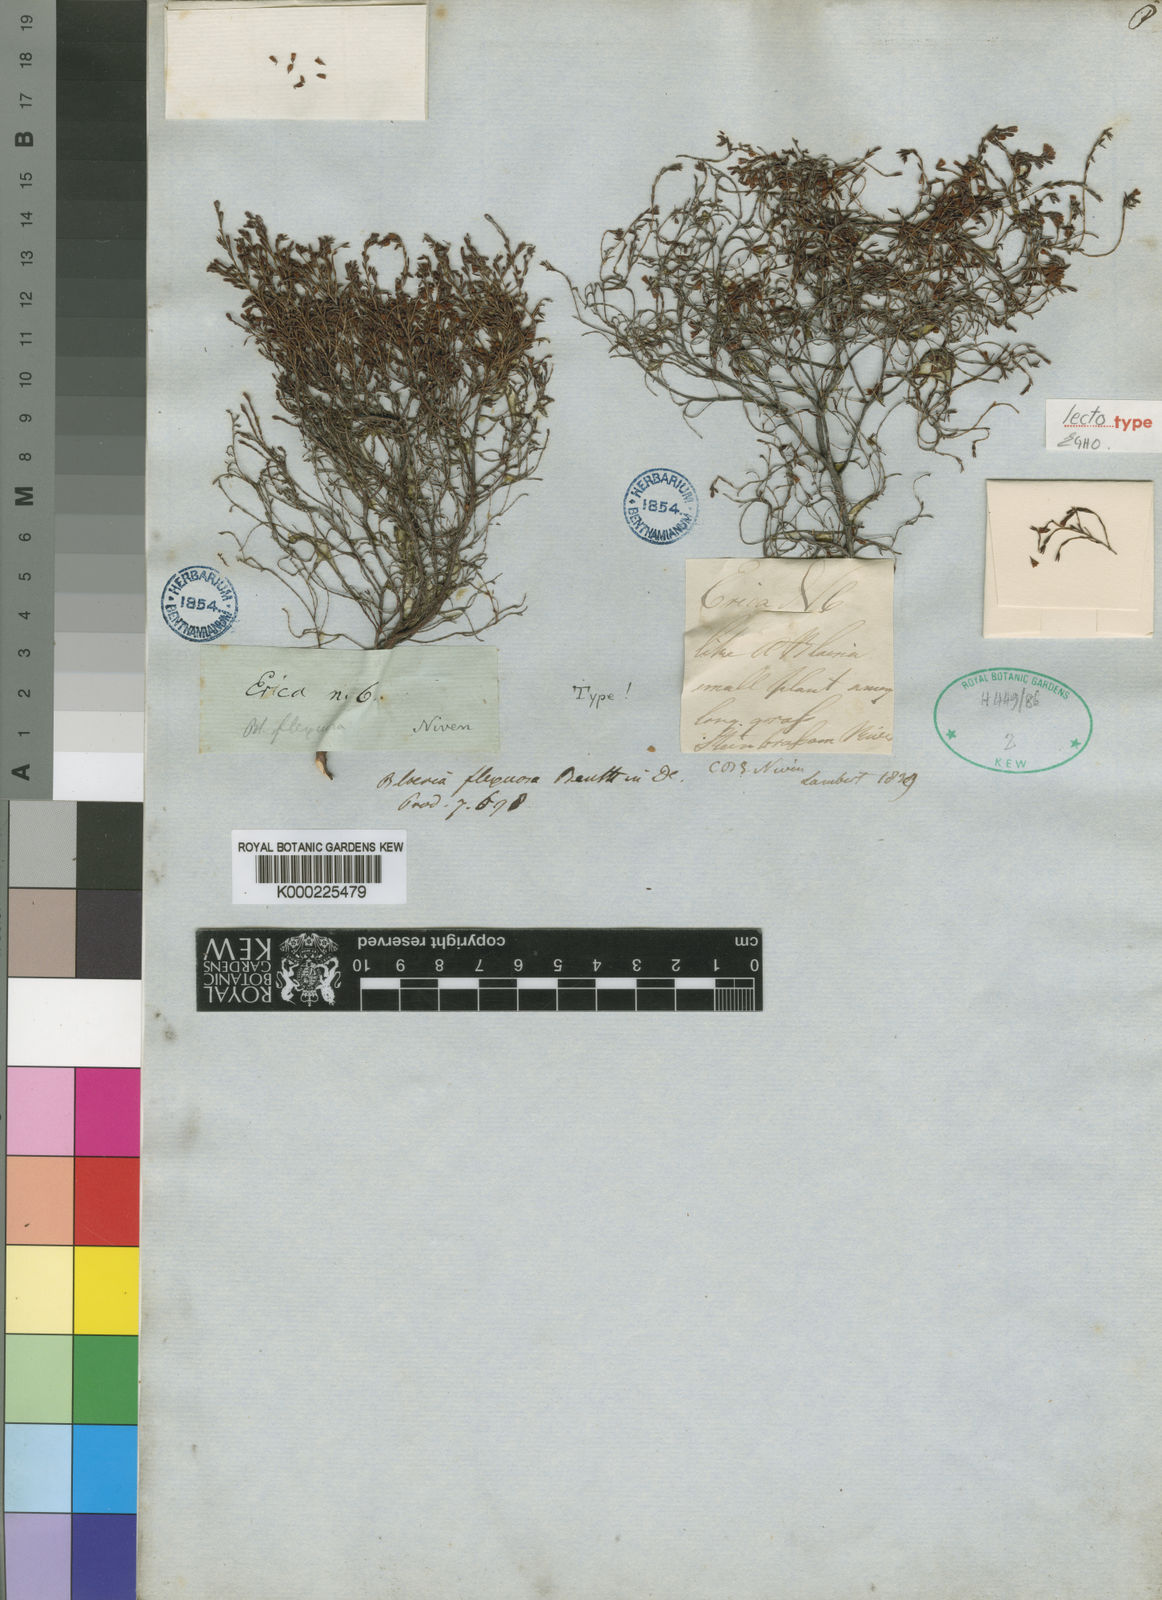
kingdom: Plantae
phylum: Tracheophyta
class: Magnoliopsida
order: Ericales
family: Ericaceae
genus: Erica
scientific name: Erica multiflexuosa
